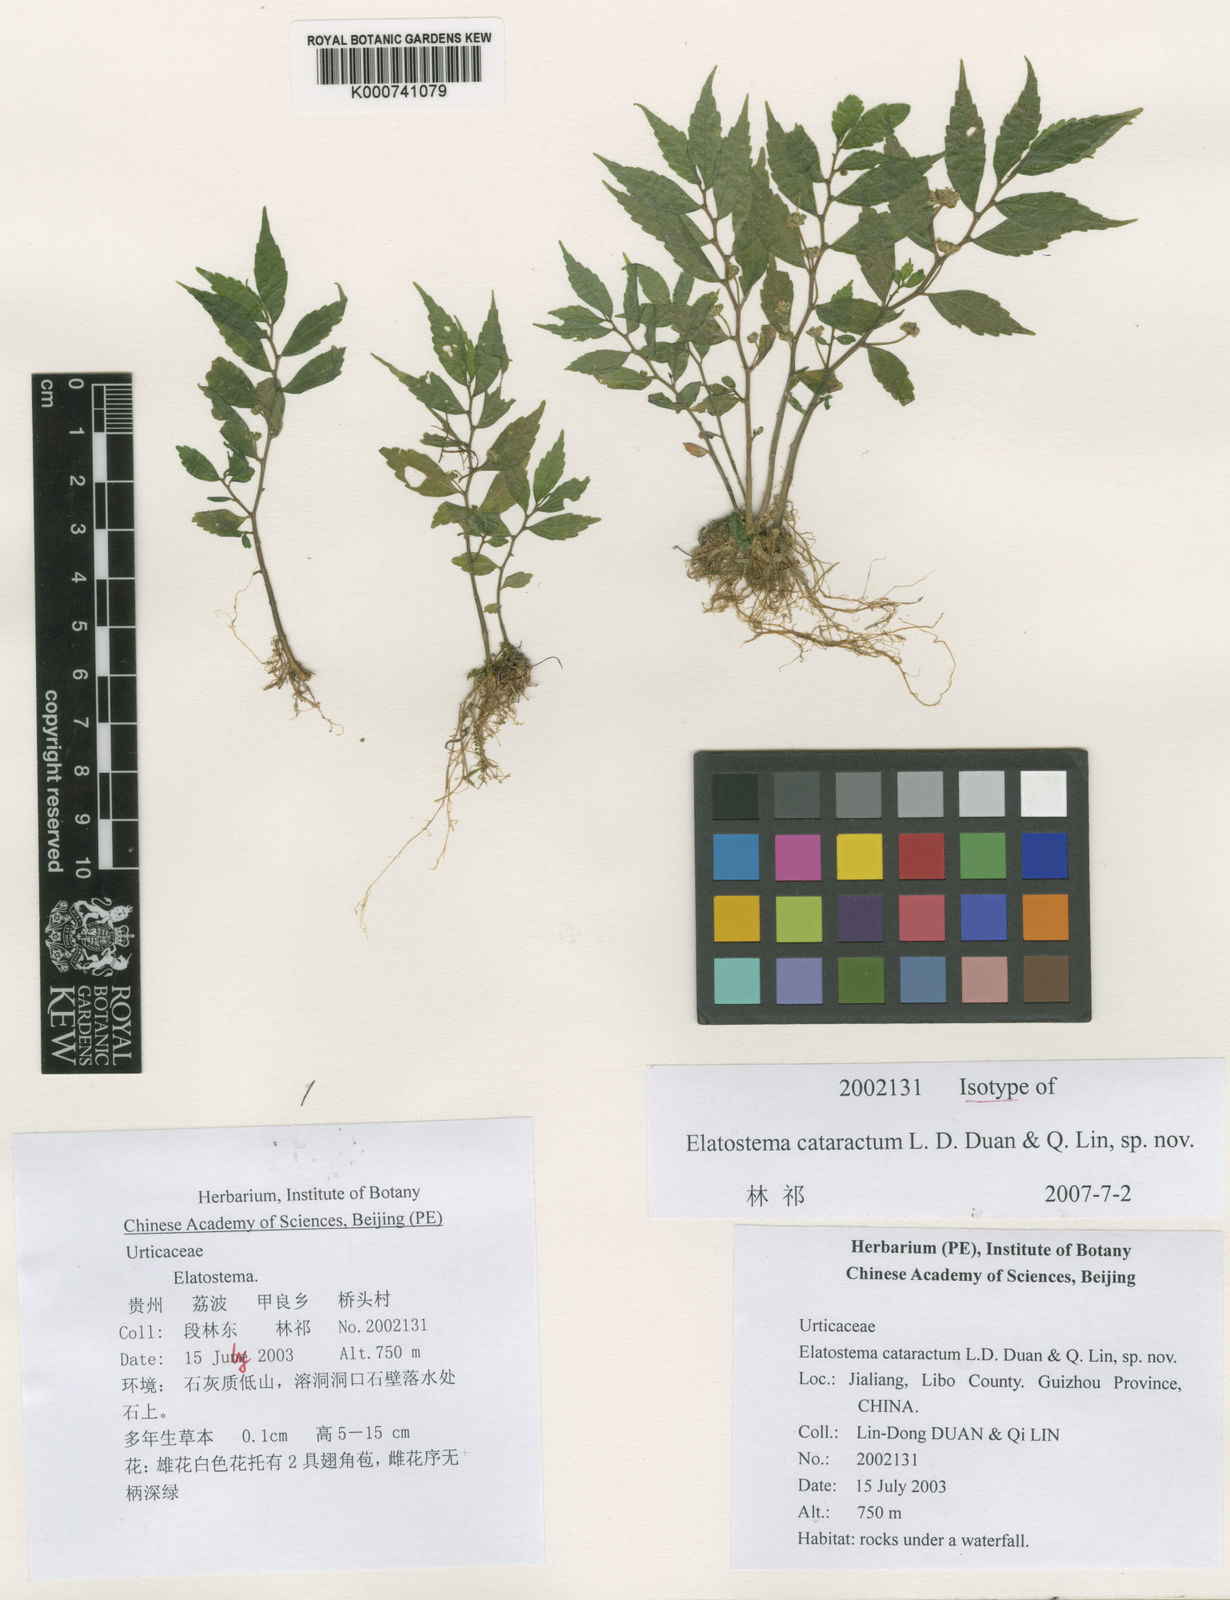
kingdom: Plantae
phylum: Tracheophyta
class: Magnoliopsida
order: Rosales
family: Urticaceae
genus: Elatostema
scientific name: Elatostema cataractum
